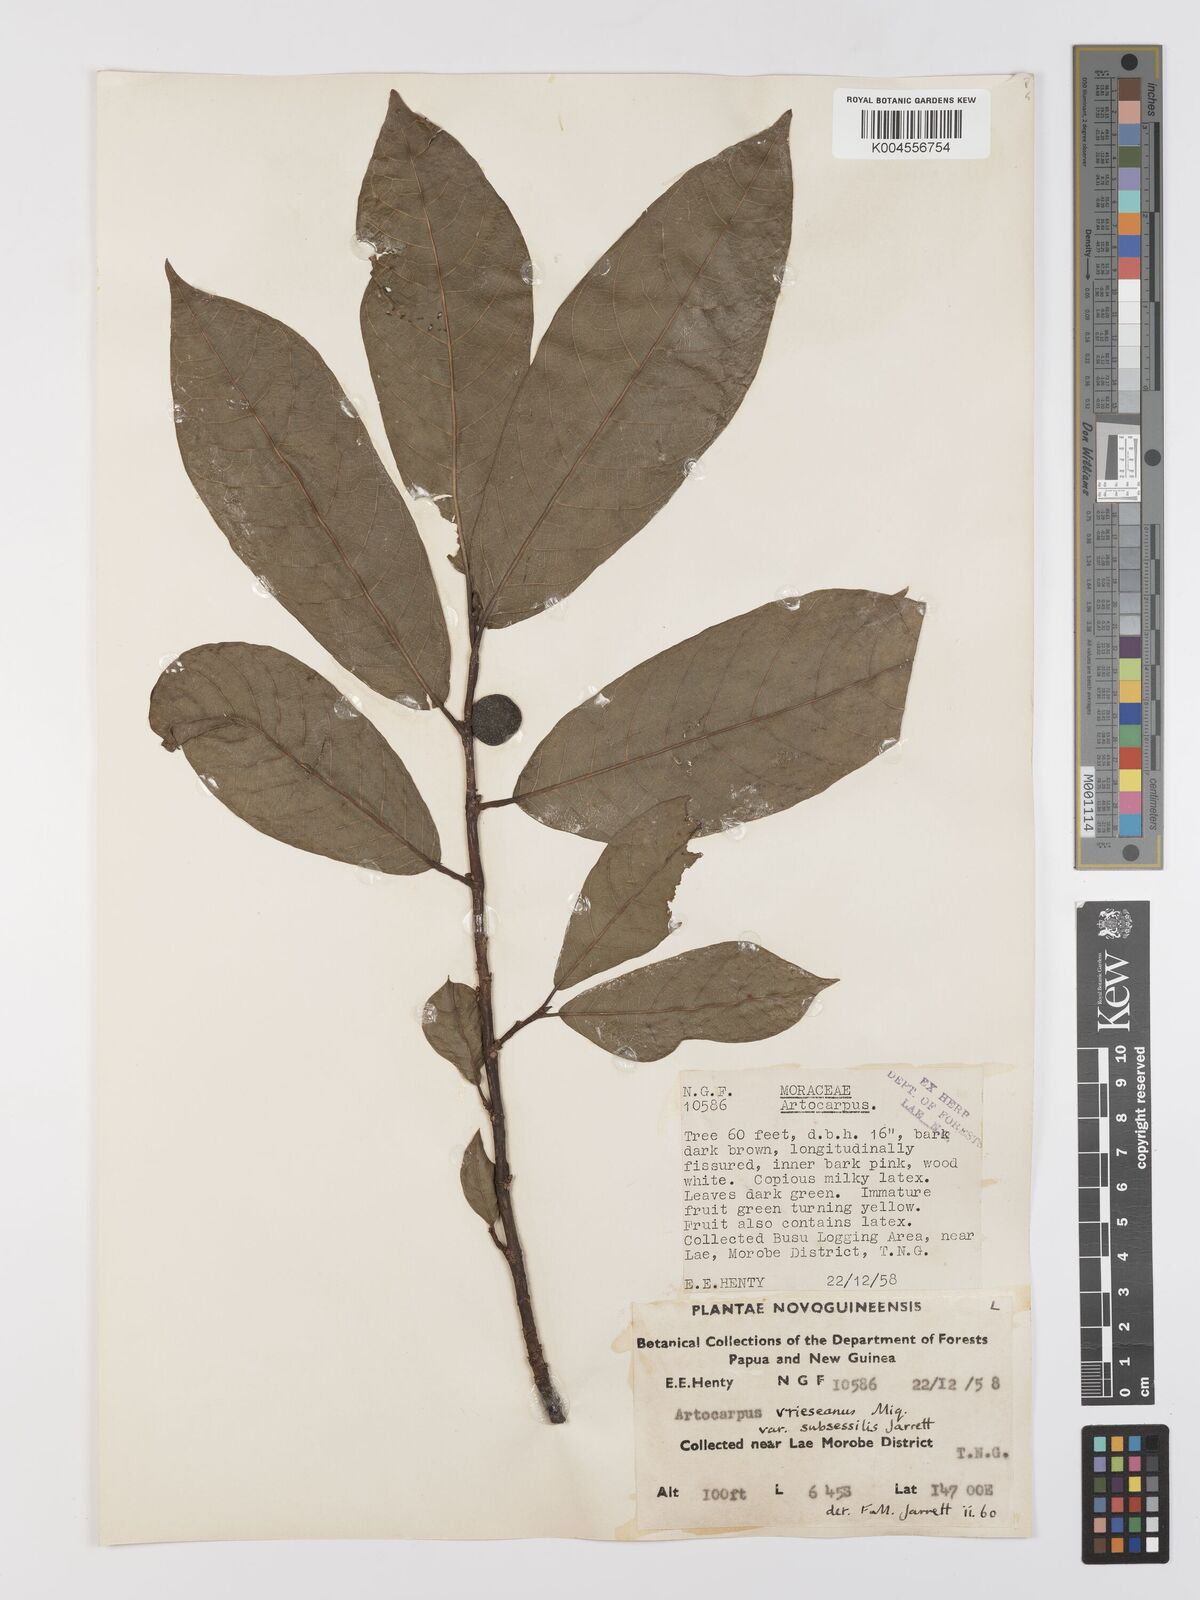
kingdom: Plantae
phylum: Tracheophyta
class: Magnoliopsida
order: Rosales
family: Moraceae
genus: Artocarpus
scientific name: Artocarpus vrieseanus
